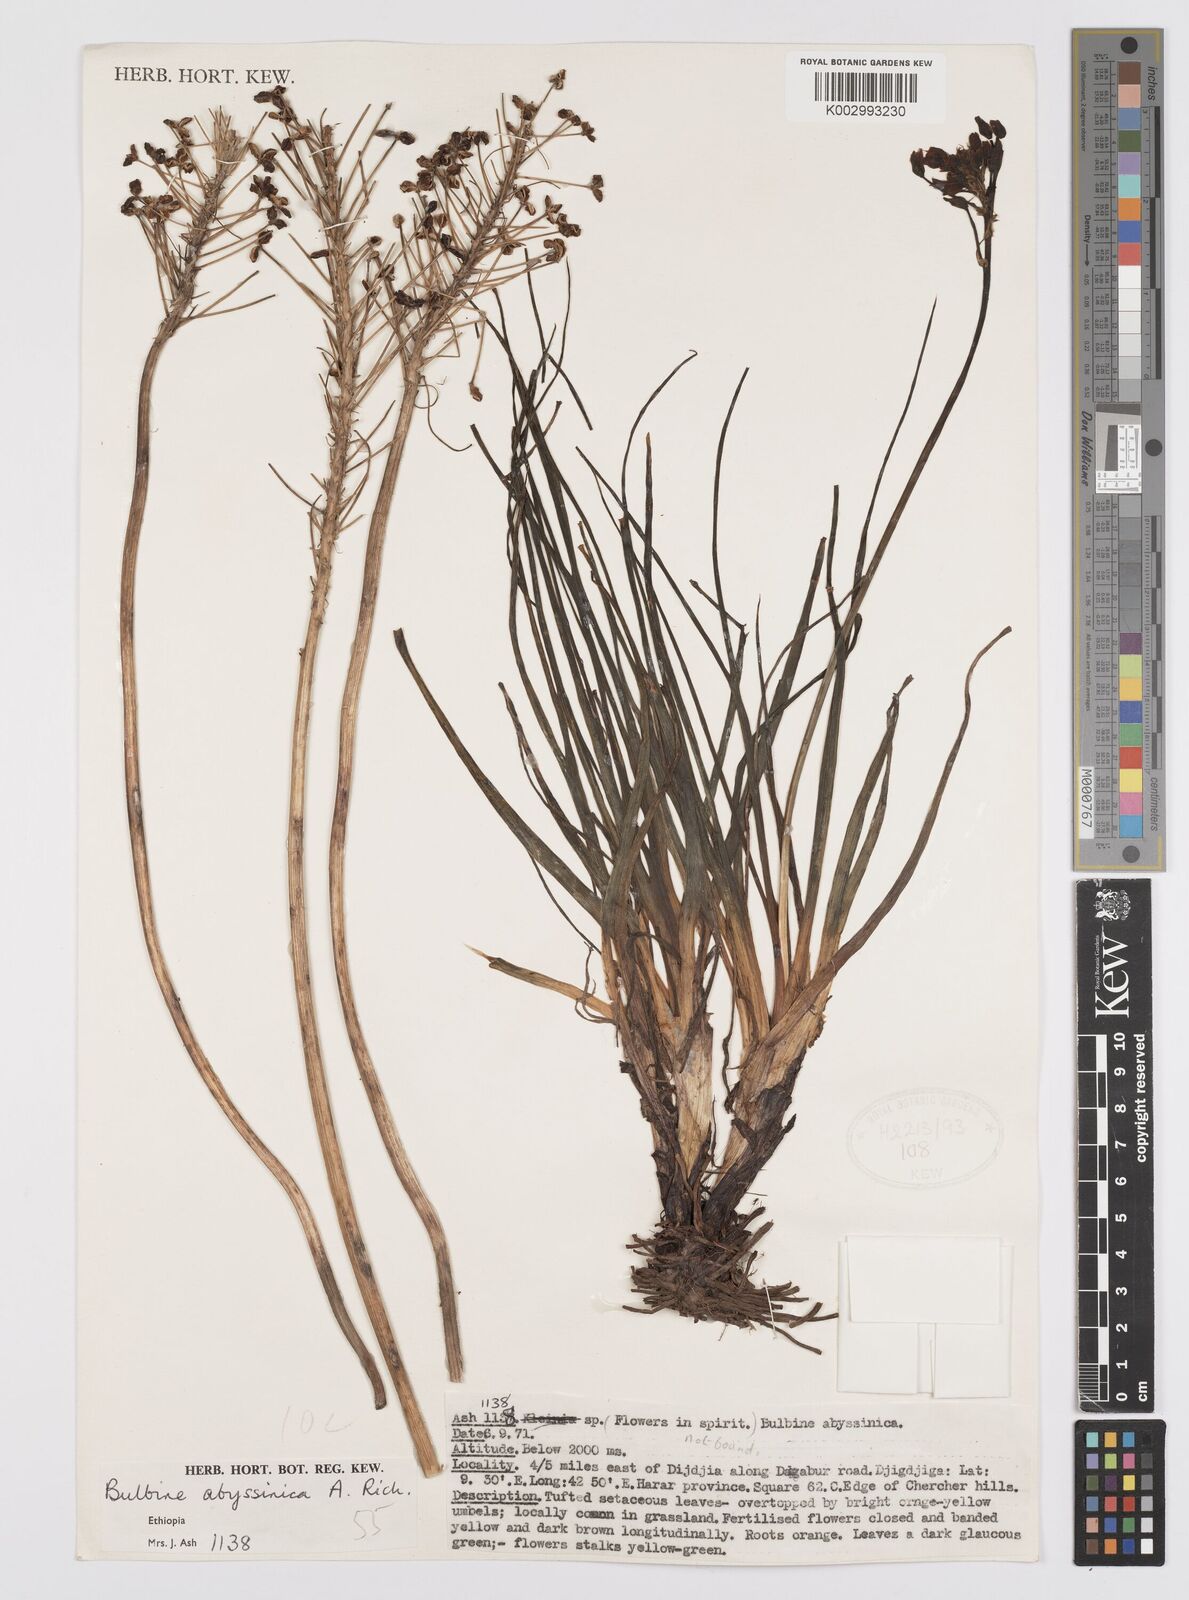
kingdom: Plantae
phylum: Tracheophyta
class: Liliopsida
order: Asparagales
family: Asphodelaceae
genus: Bulbine
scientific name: Bulbine abyssinica
